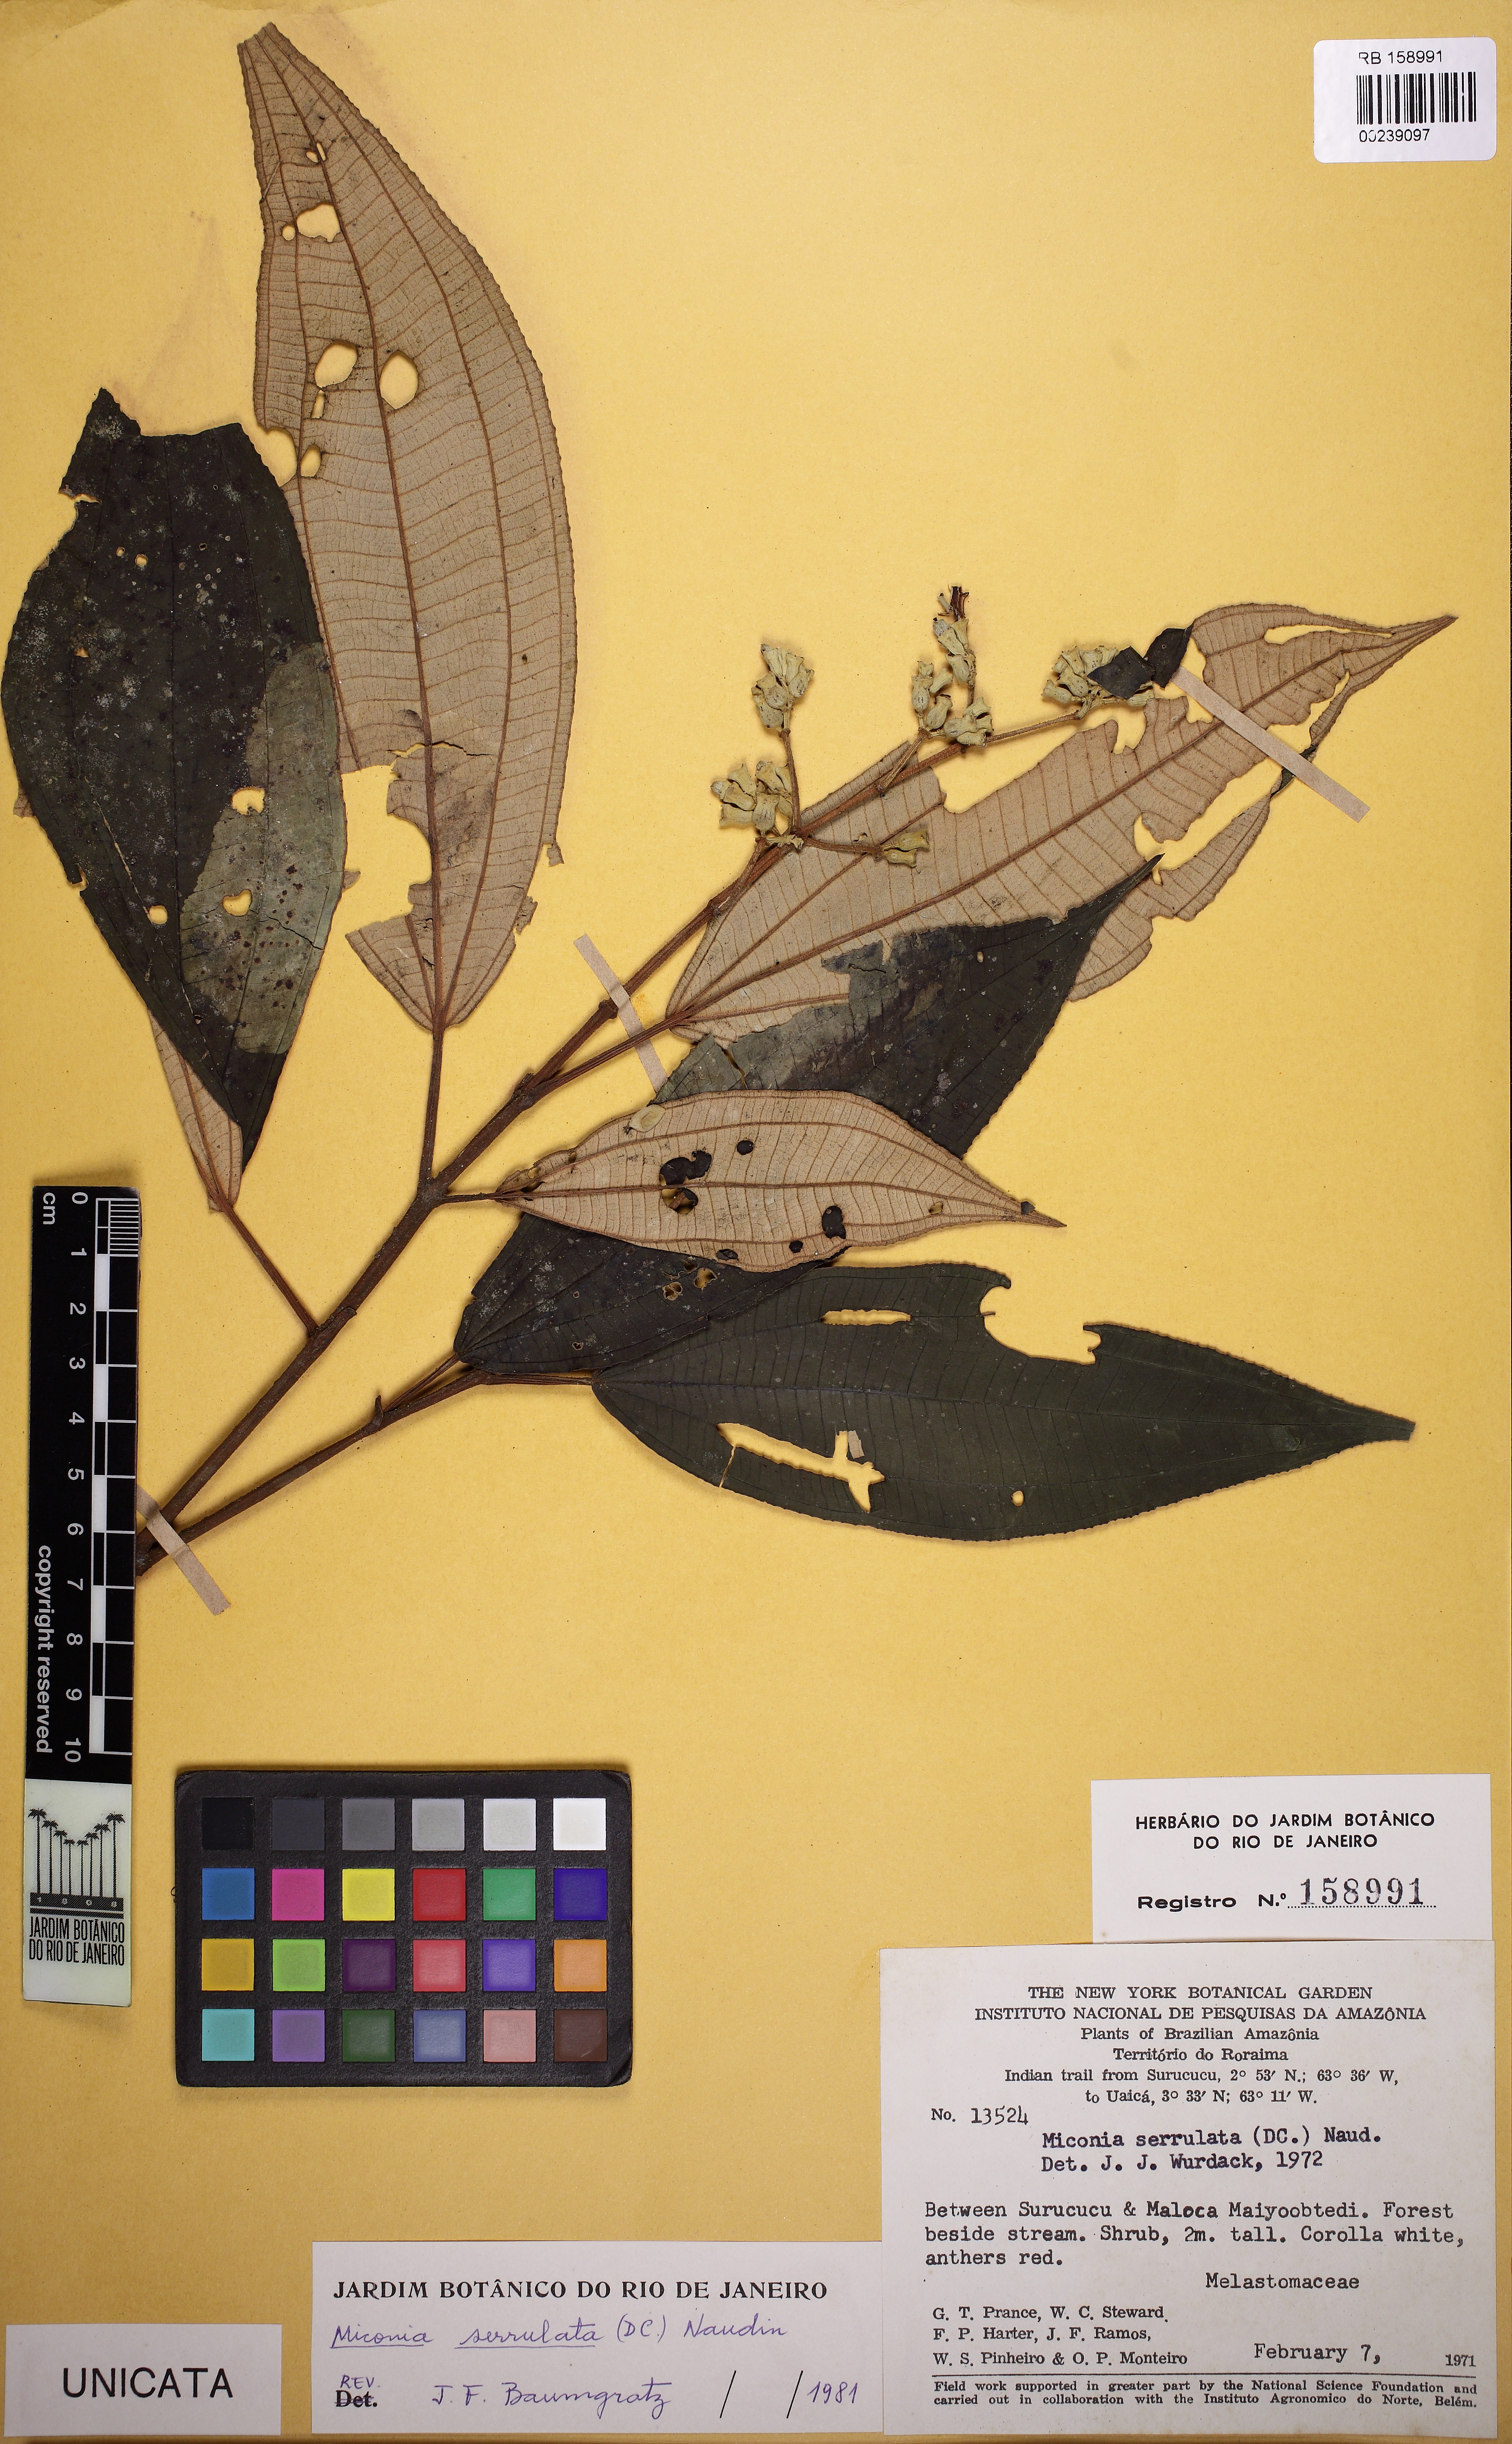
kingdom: Plantae
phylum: Tracheophyta
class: Magnoliopsida
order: Myrtales
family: Melastomataceae
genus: Miconia
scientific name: Miconia serrulata
